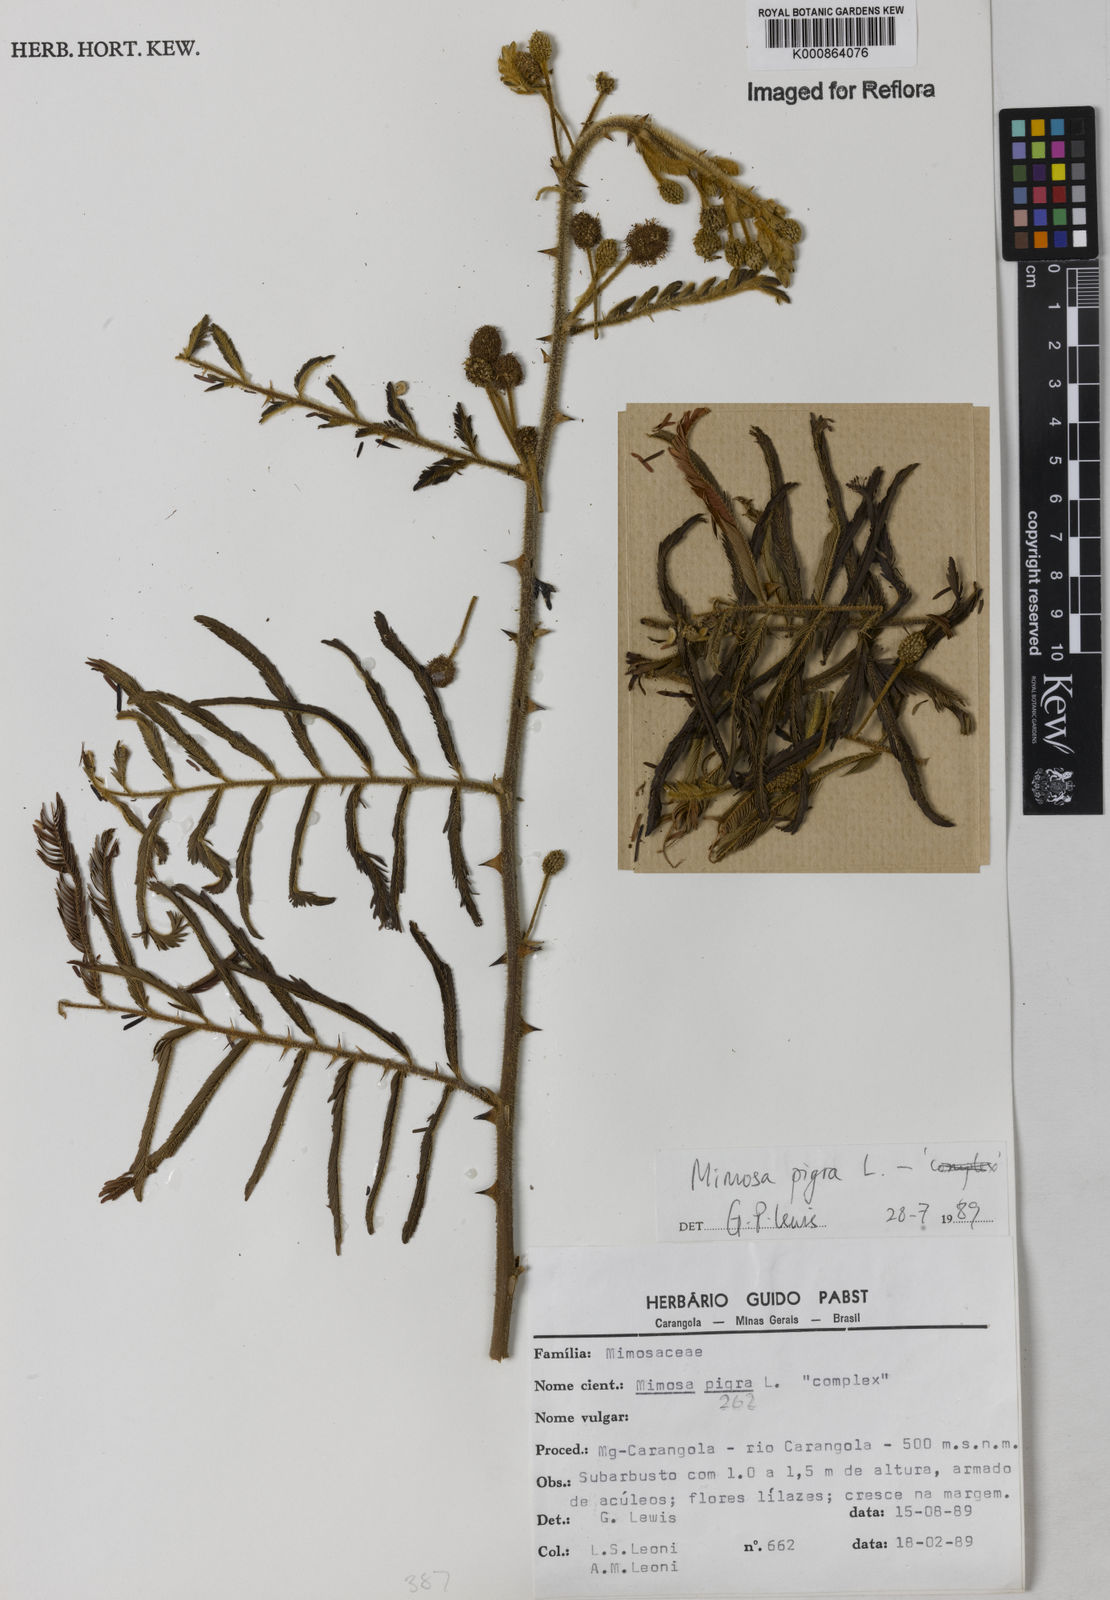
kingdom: Plantae
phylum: Tracheophyta
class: Magnoliopsida
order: Fabales
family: Fabaceae
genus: Mimosa
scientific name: Mimosa pigra
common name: Black mimosa
